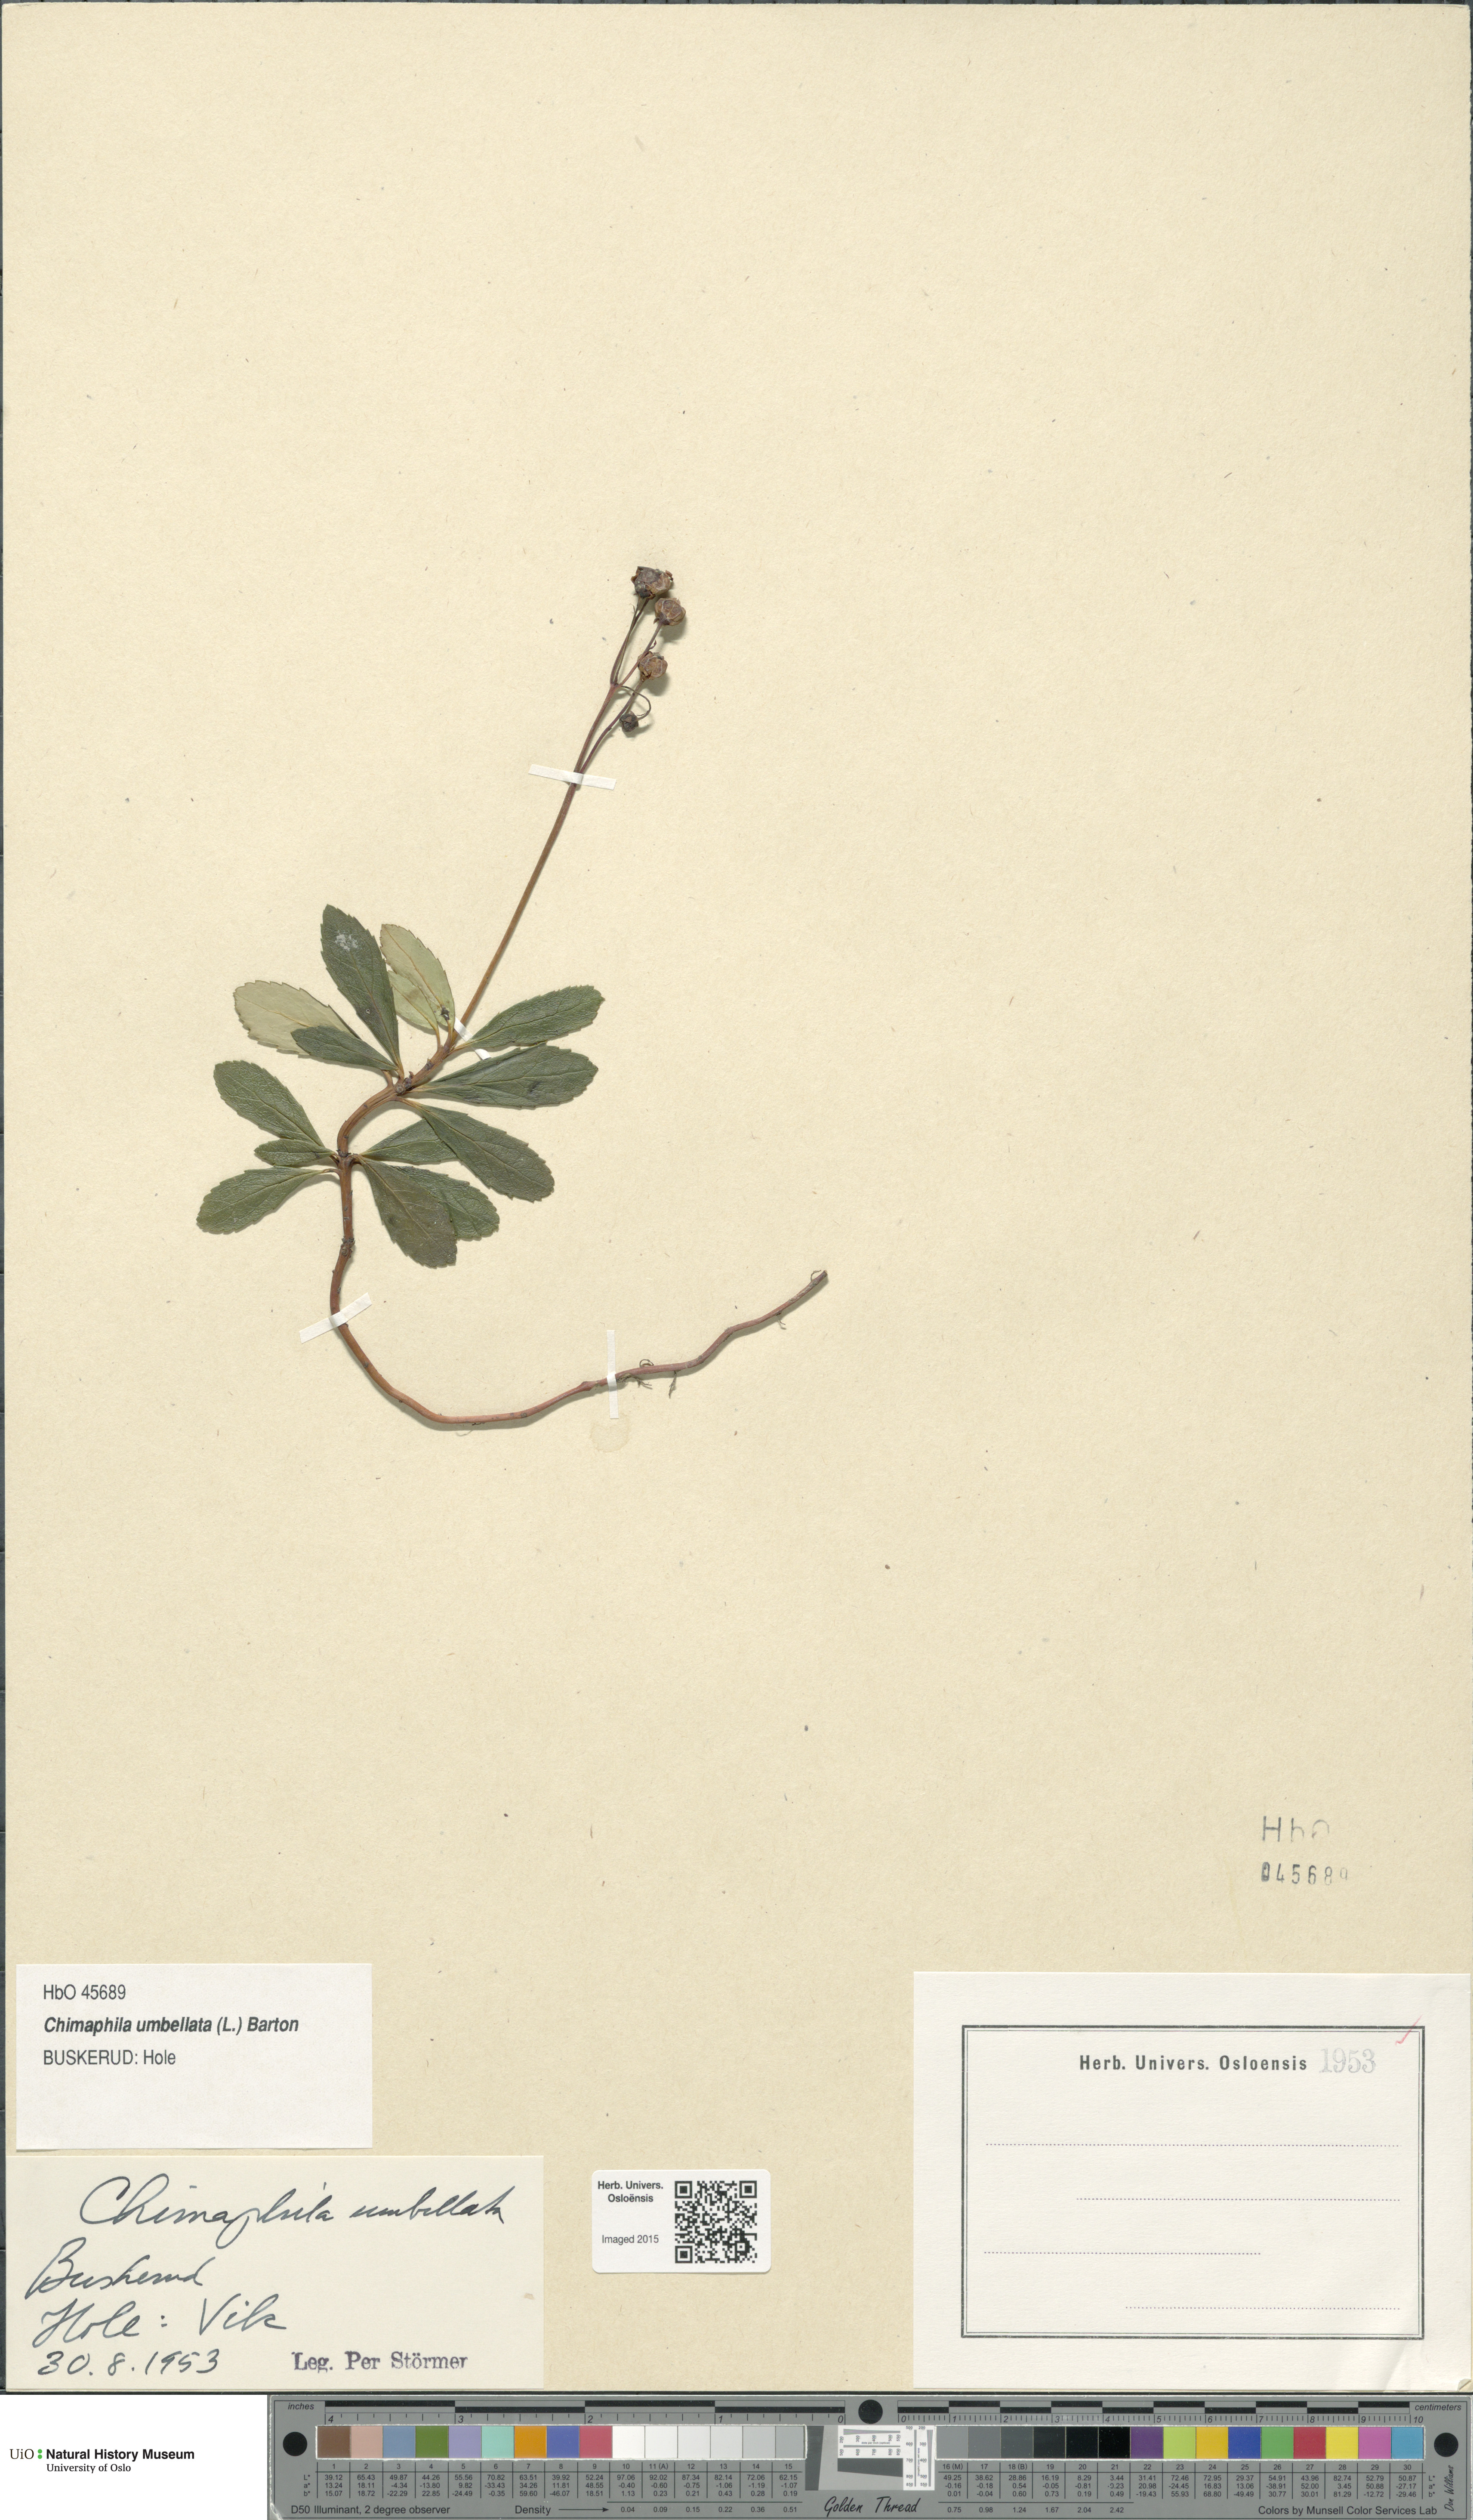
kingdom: Plantae
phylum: Tracheophyta
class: Magnoliopsida
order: Ericales
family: Ericaceae
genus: Chimaphila
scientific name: Chimaphila umbellata
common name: Pipsissewa
